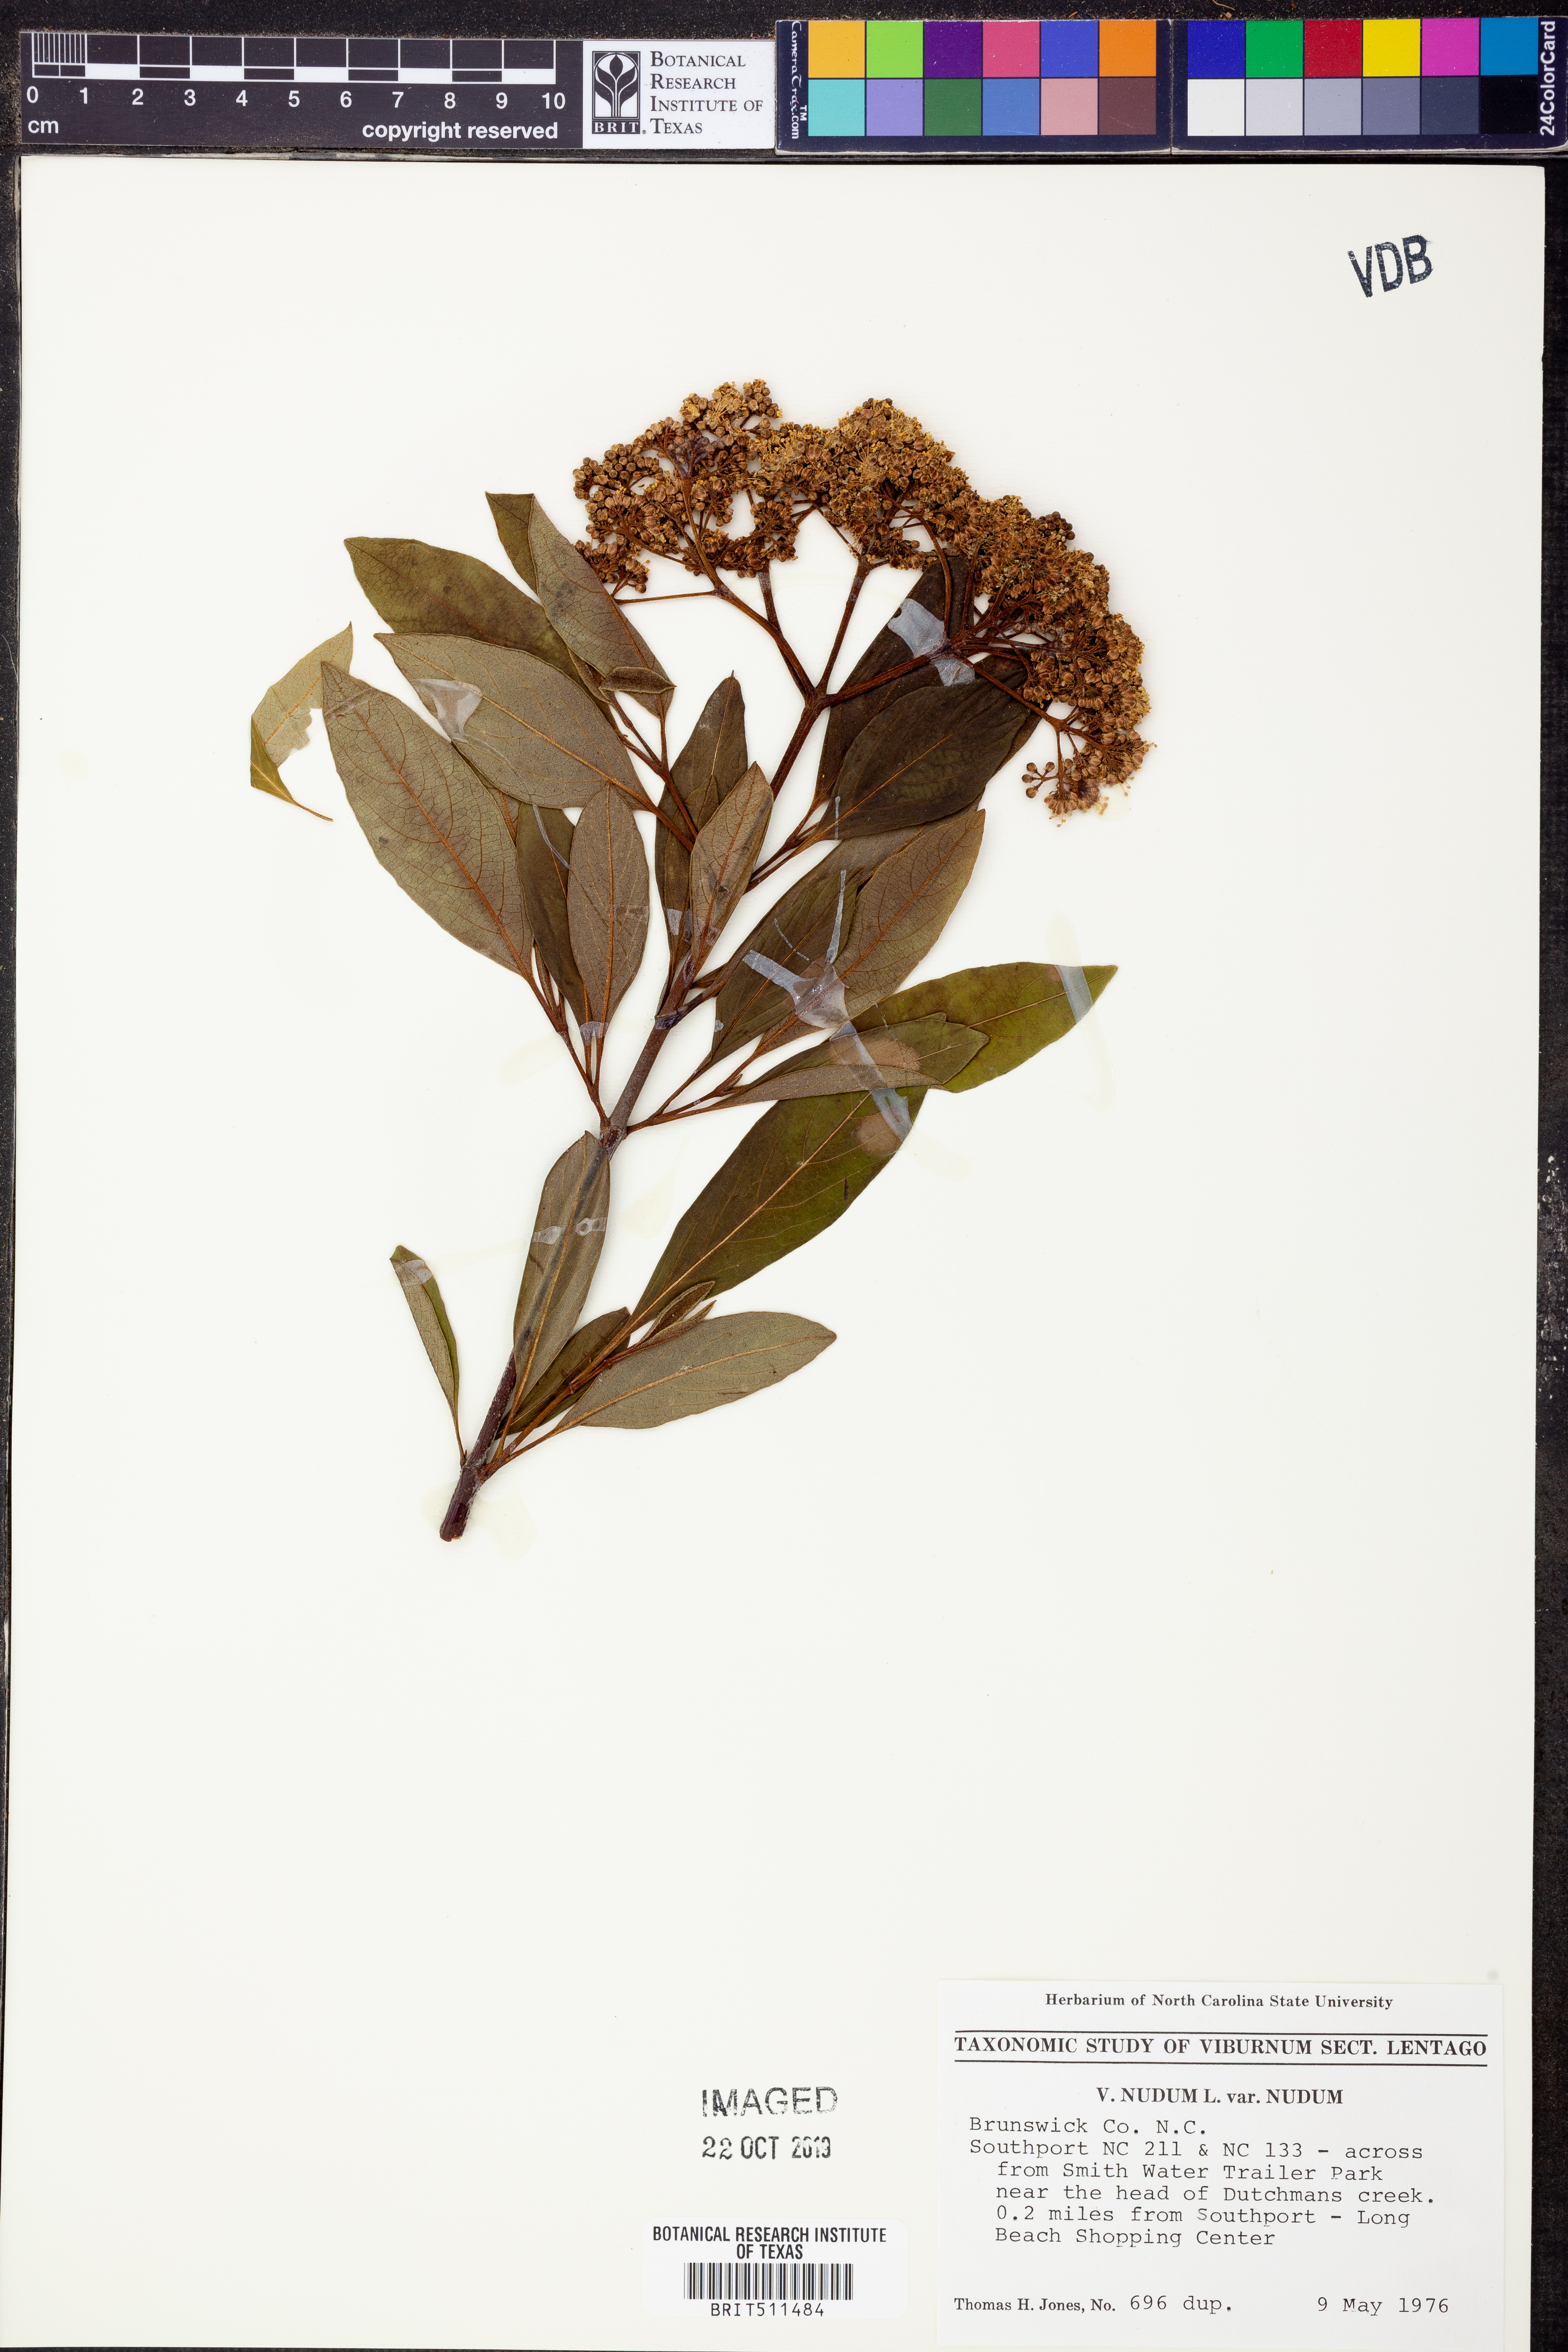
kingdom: Plantae
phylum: Tracheophyta
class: Magnoliopsida
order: Dipsacales
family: Viburnaceae
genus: Viburnum
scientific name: Viburnum nudum
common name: Possum haw
